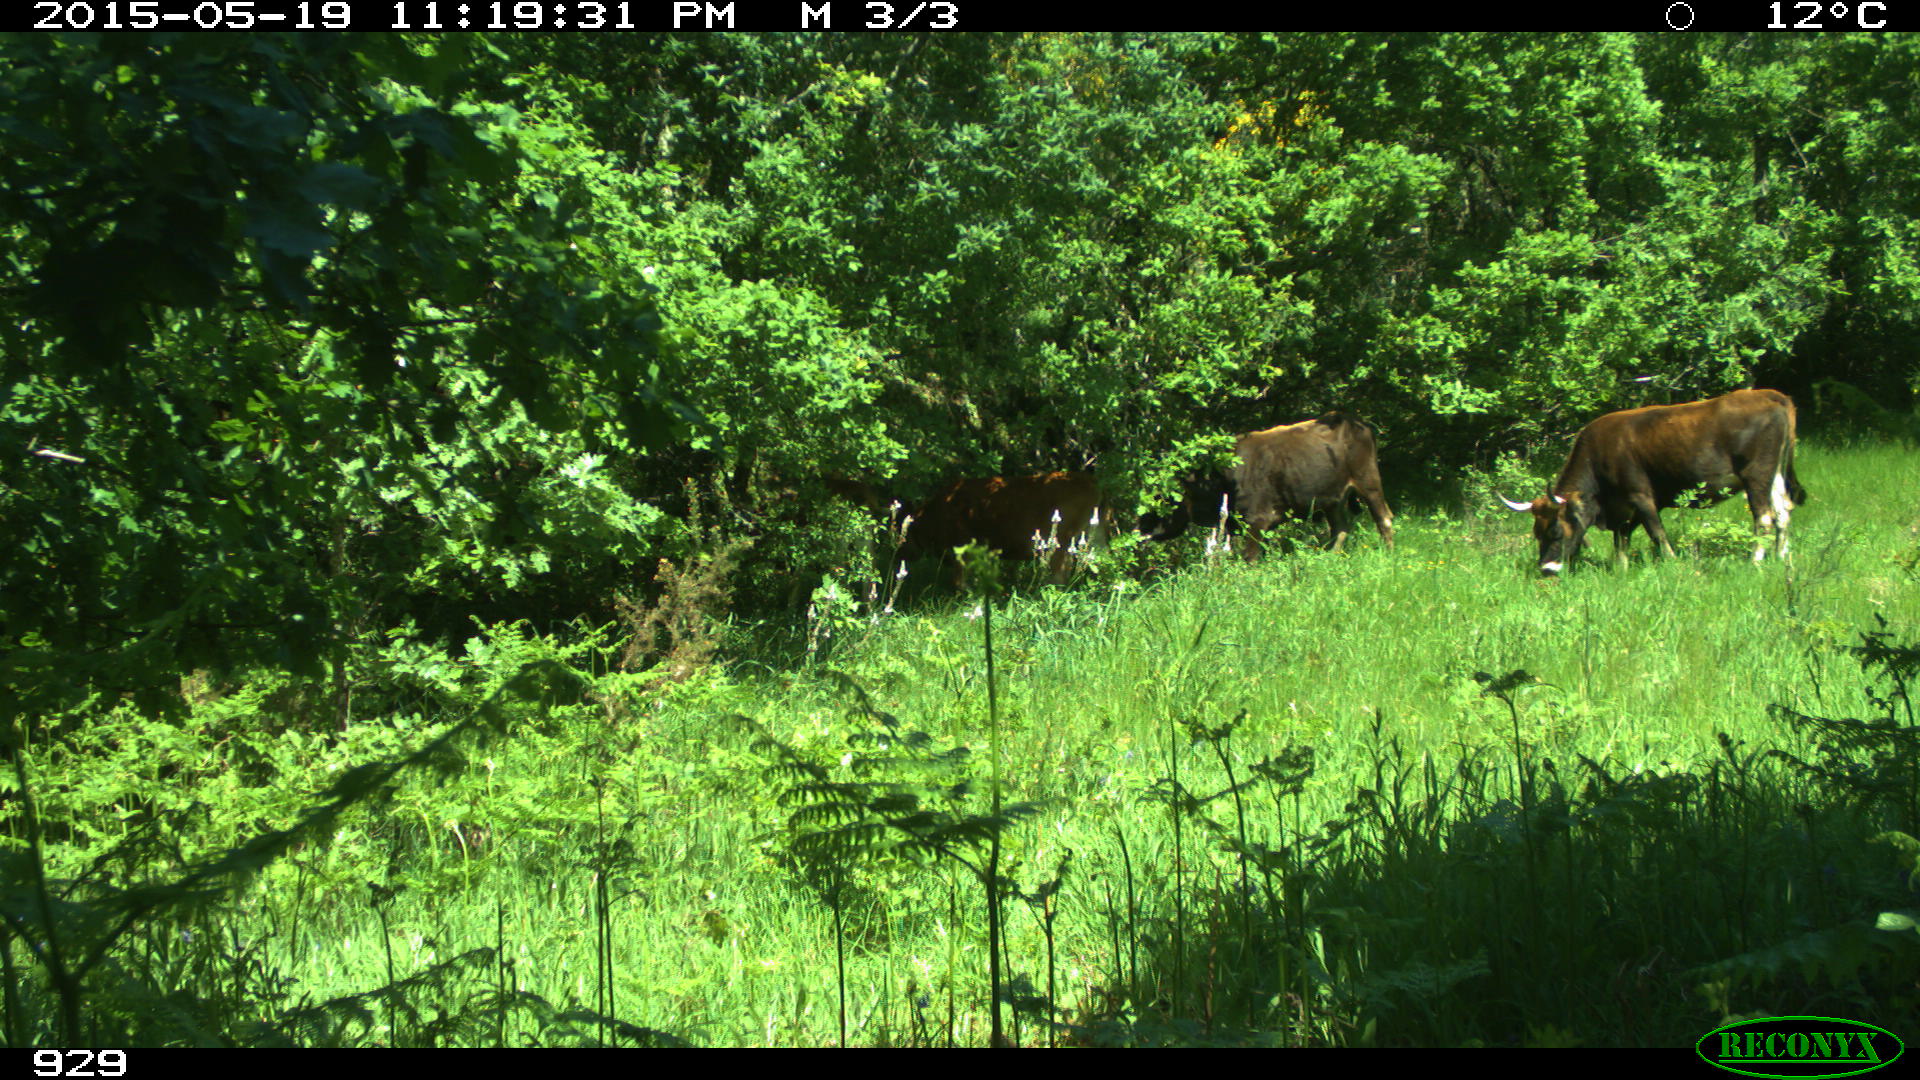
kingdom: Animalia
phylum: Chordata
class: Mammalia
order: Artiodactyla
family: Bovidae
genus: Bos
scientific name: Bos taurus
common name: Domesticated cattle
